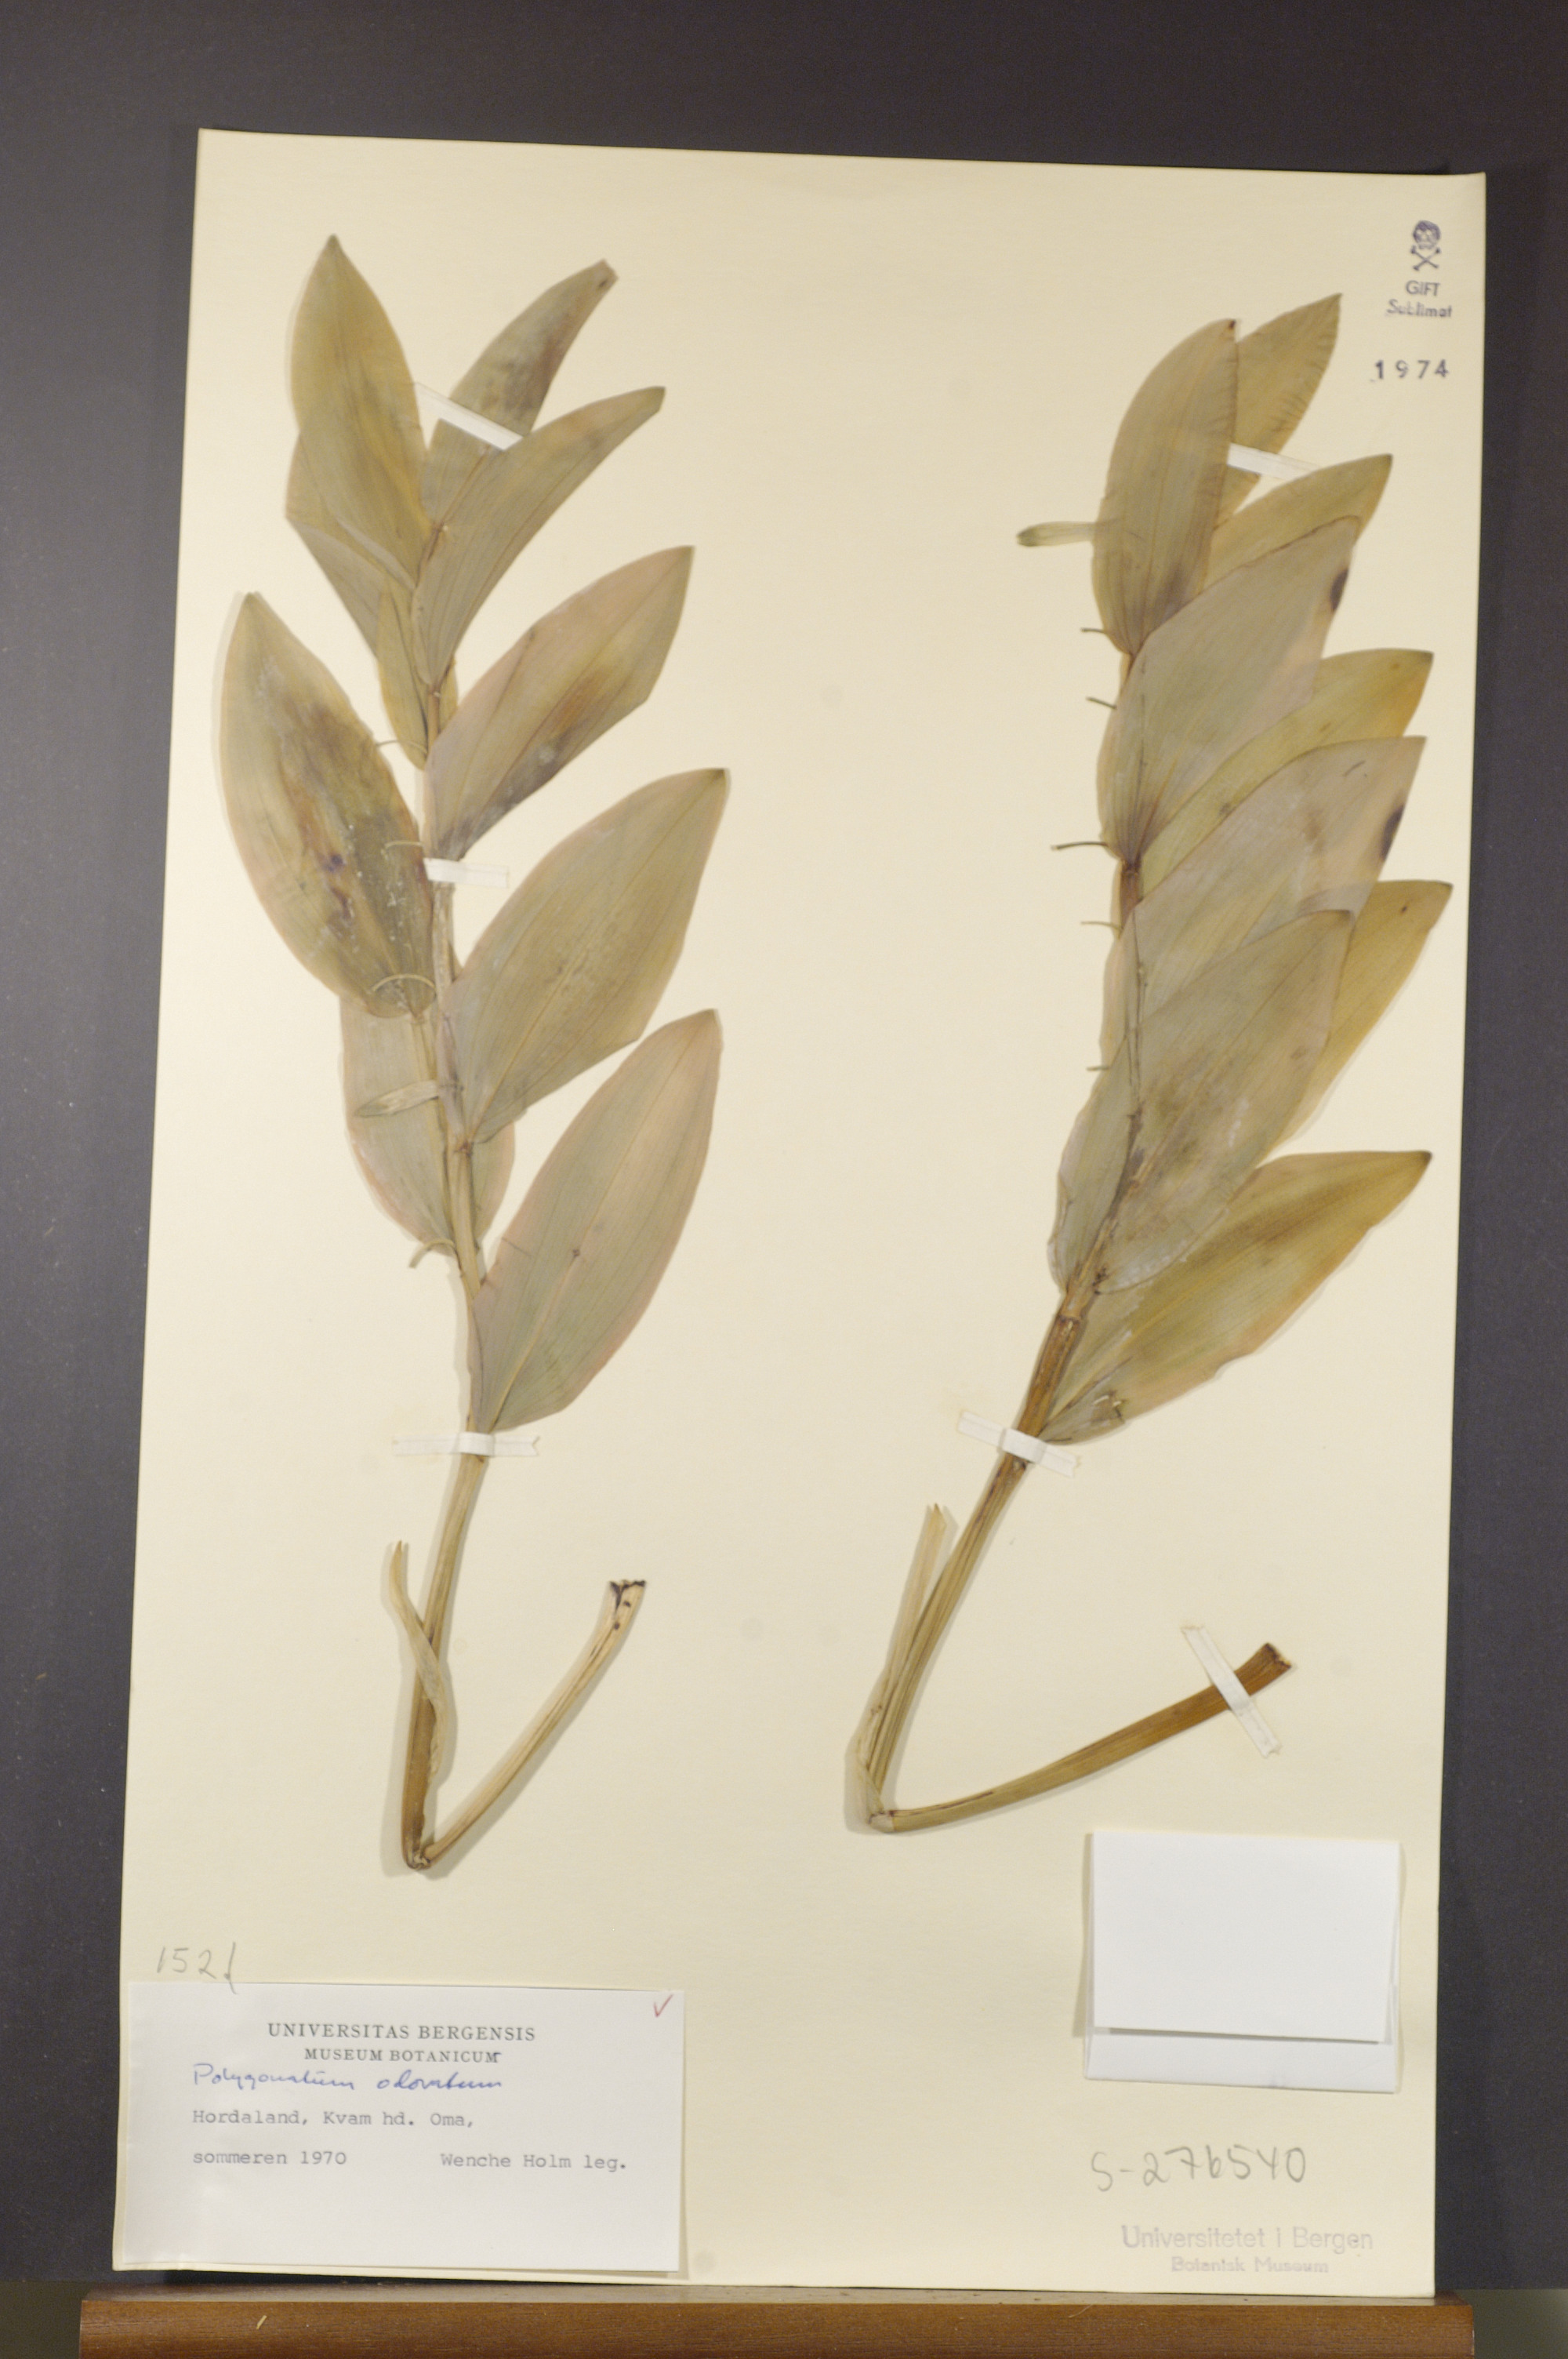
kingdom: Plantae
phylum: Tracheophyta
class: Liliopsida
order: Asparagales
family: Asparagaceae
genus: Polygonatum
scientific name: Polygonatum odoratum
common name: Angular solomon's-seal
